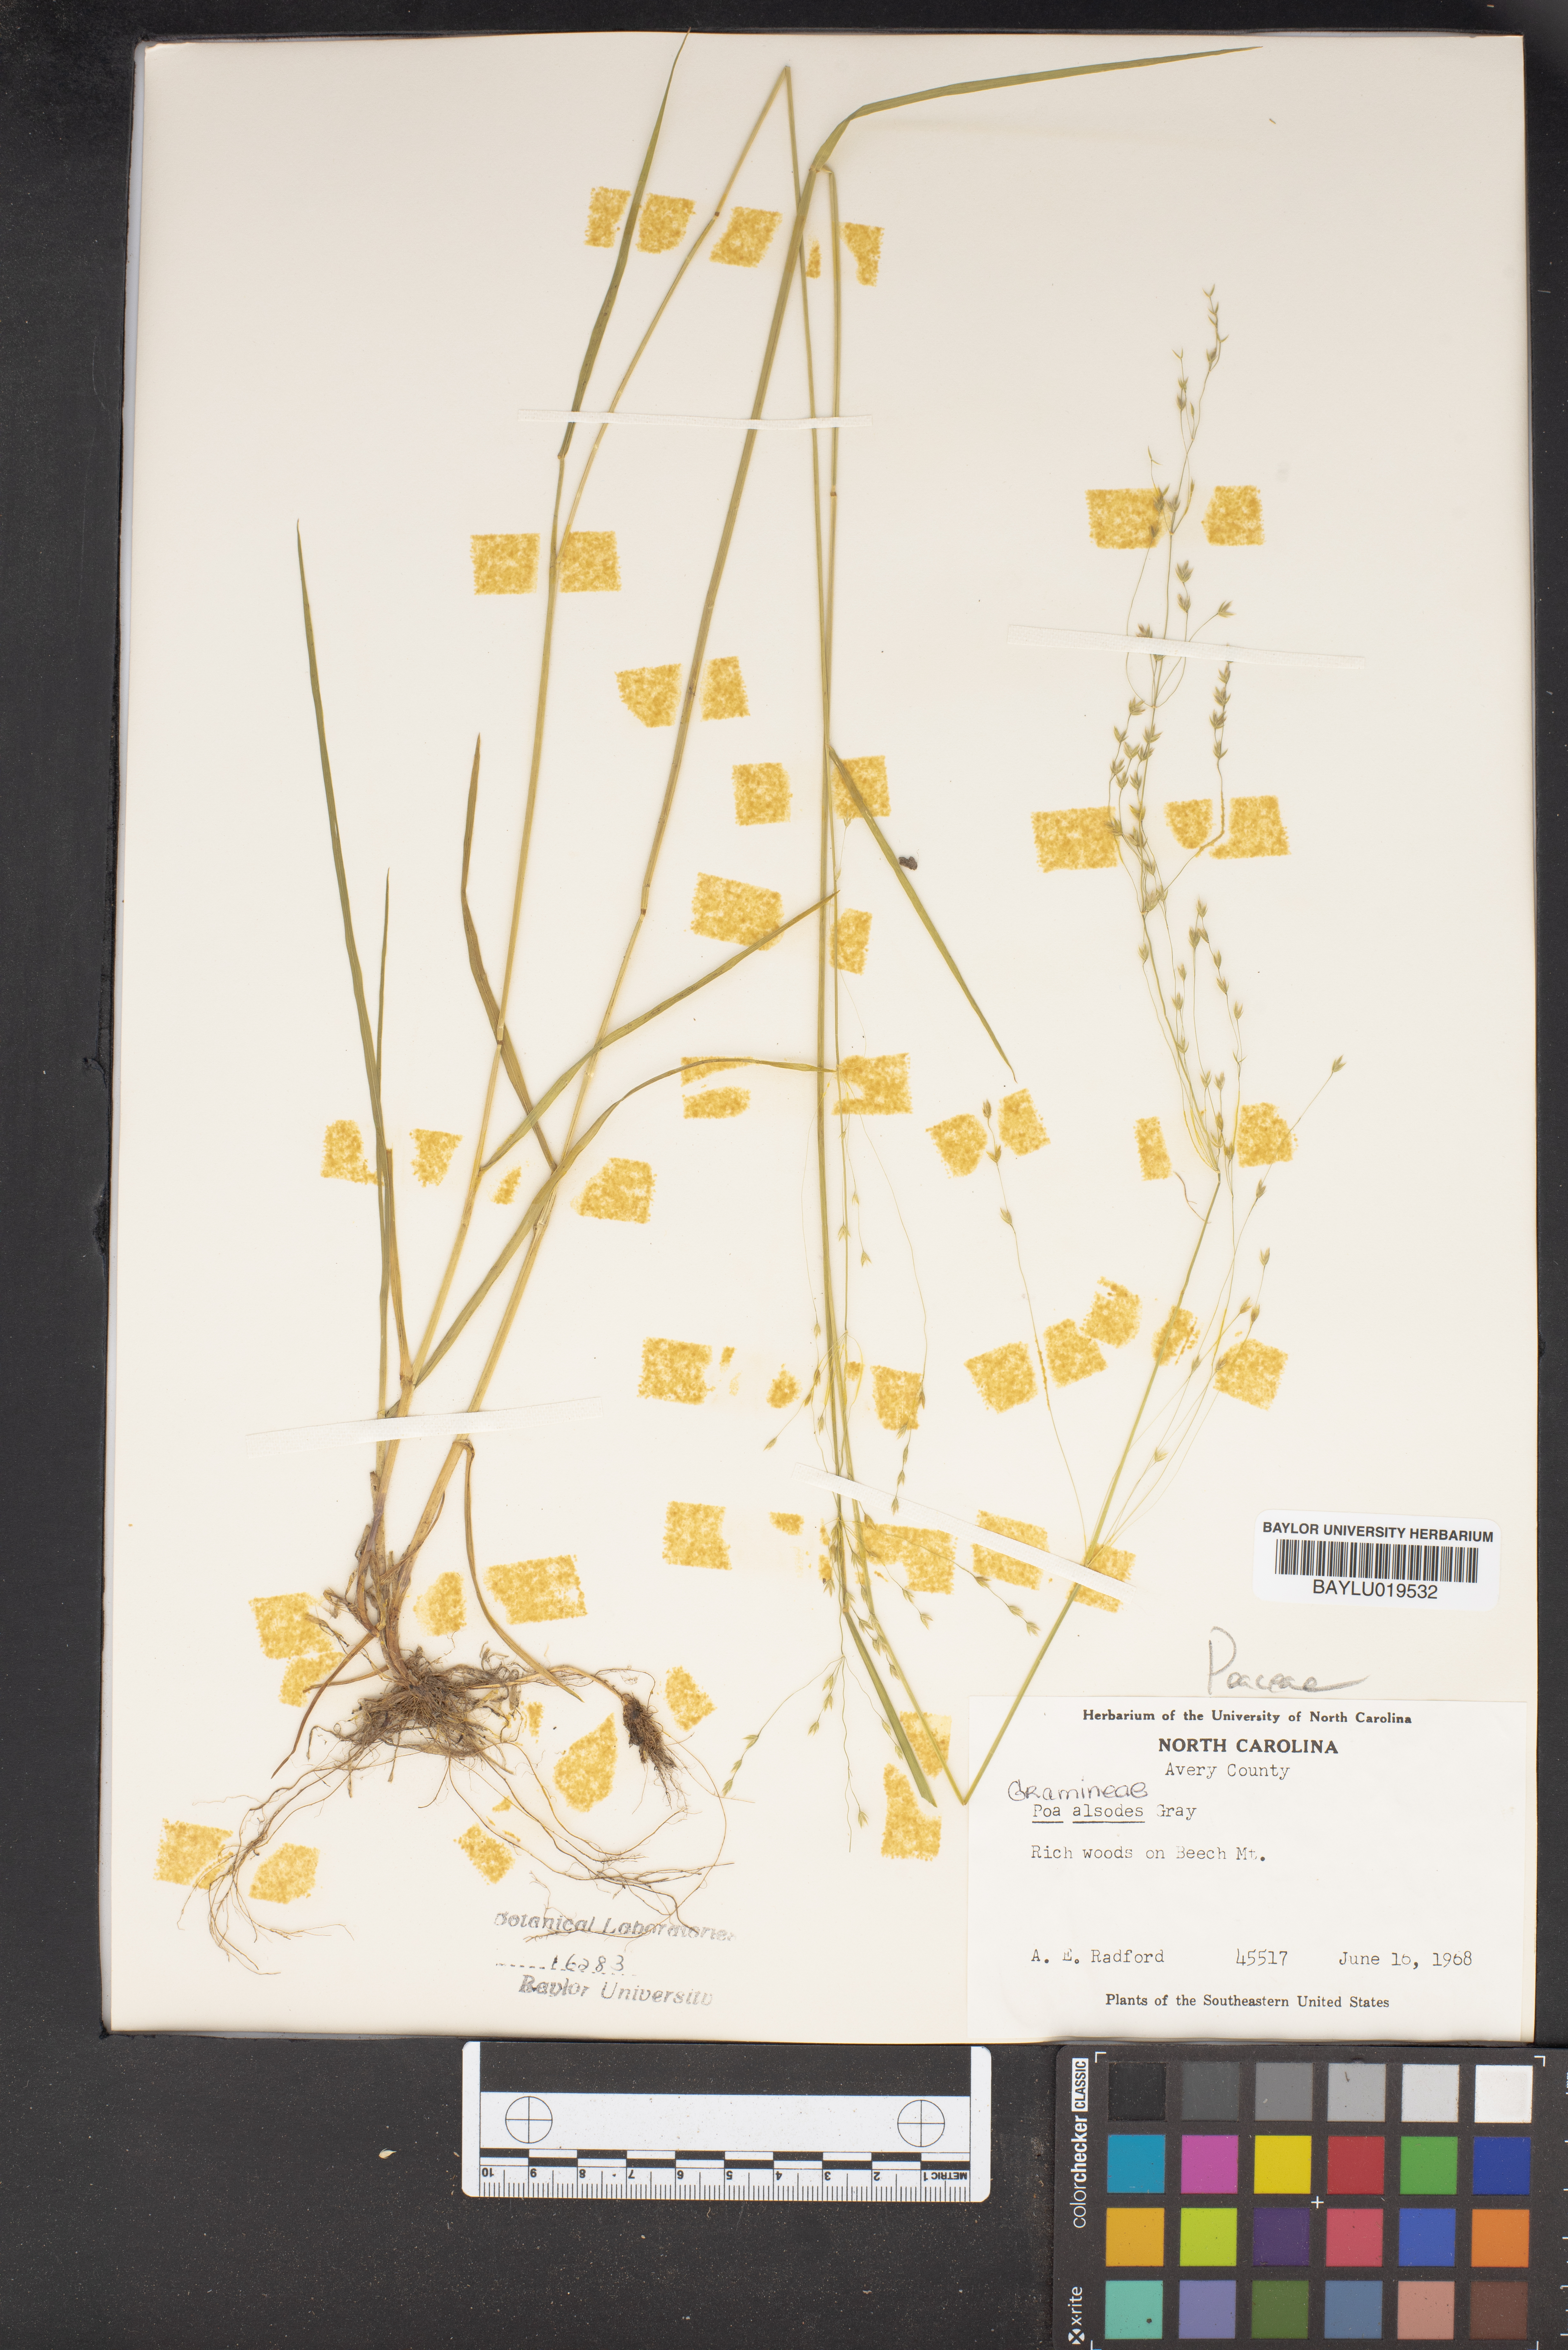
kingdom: Plantae
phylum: Tracheophyta
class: Liliopsida
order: Poales
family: Poaceae
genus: Poa
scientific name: Poa alsodes
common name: Grove bluegrass
